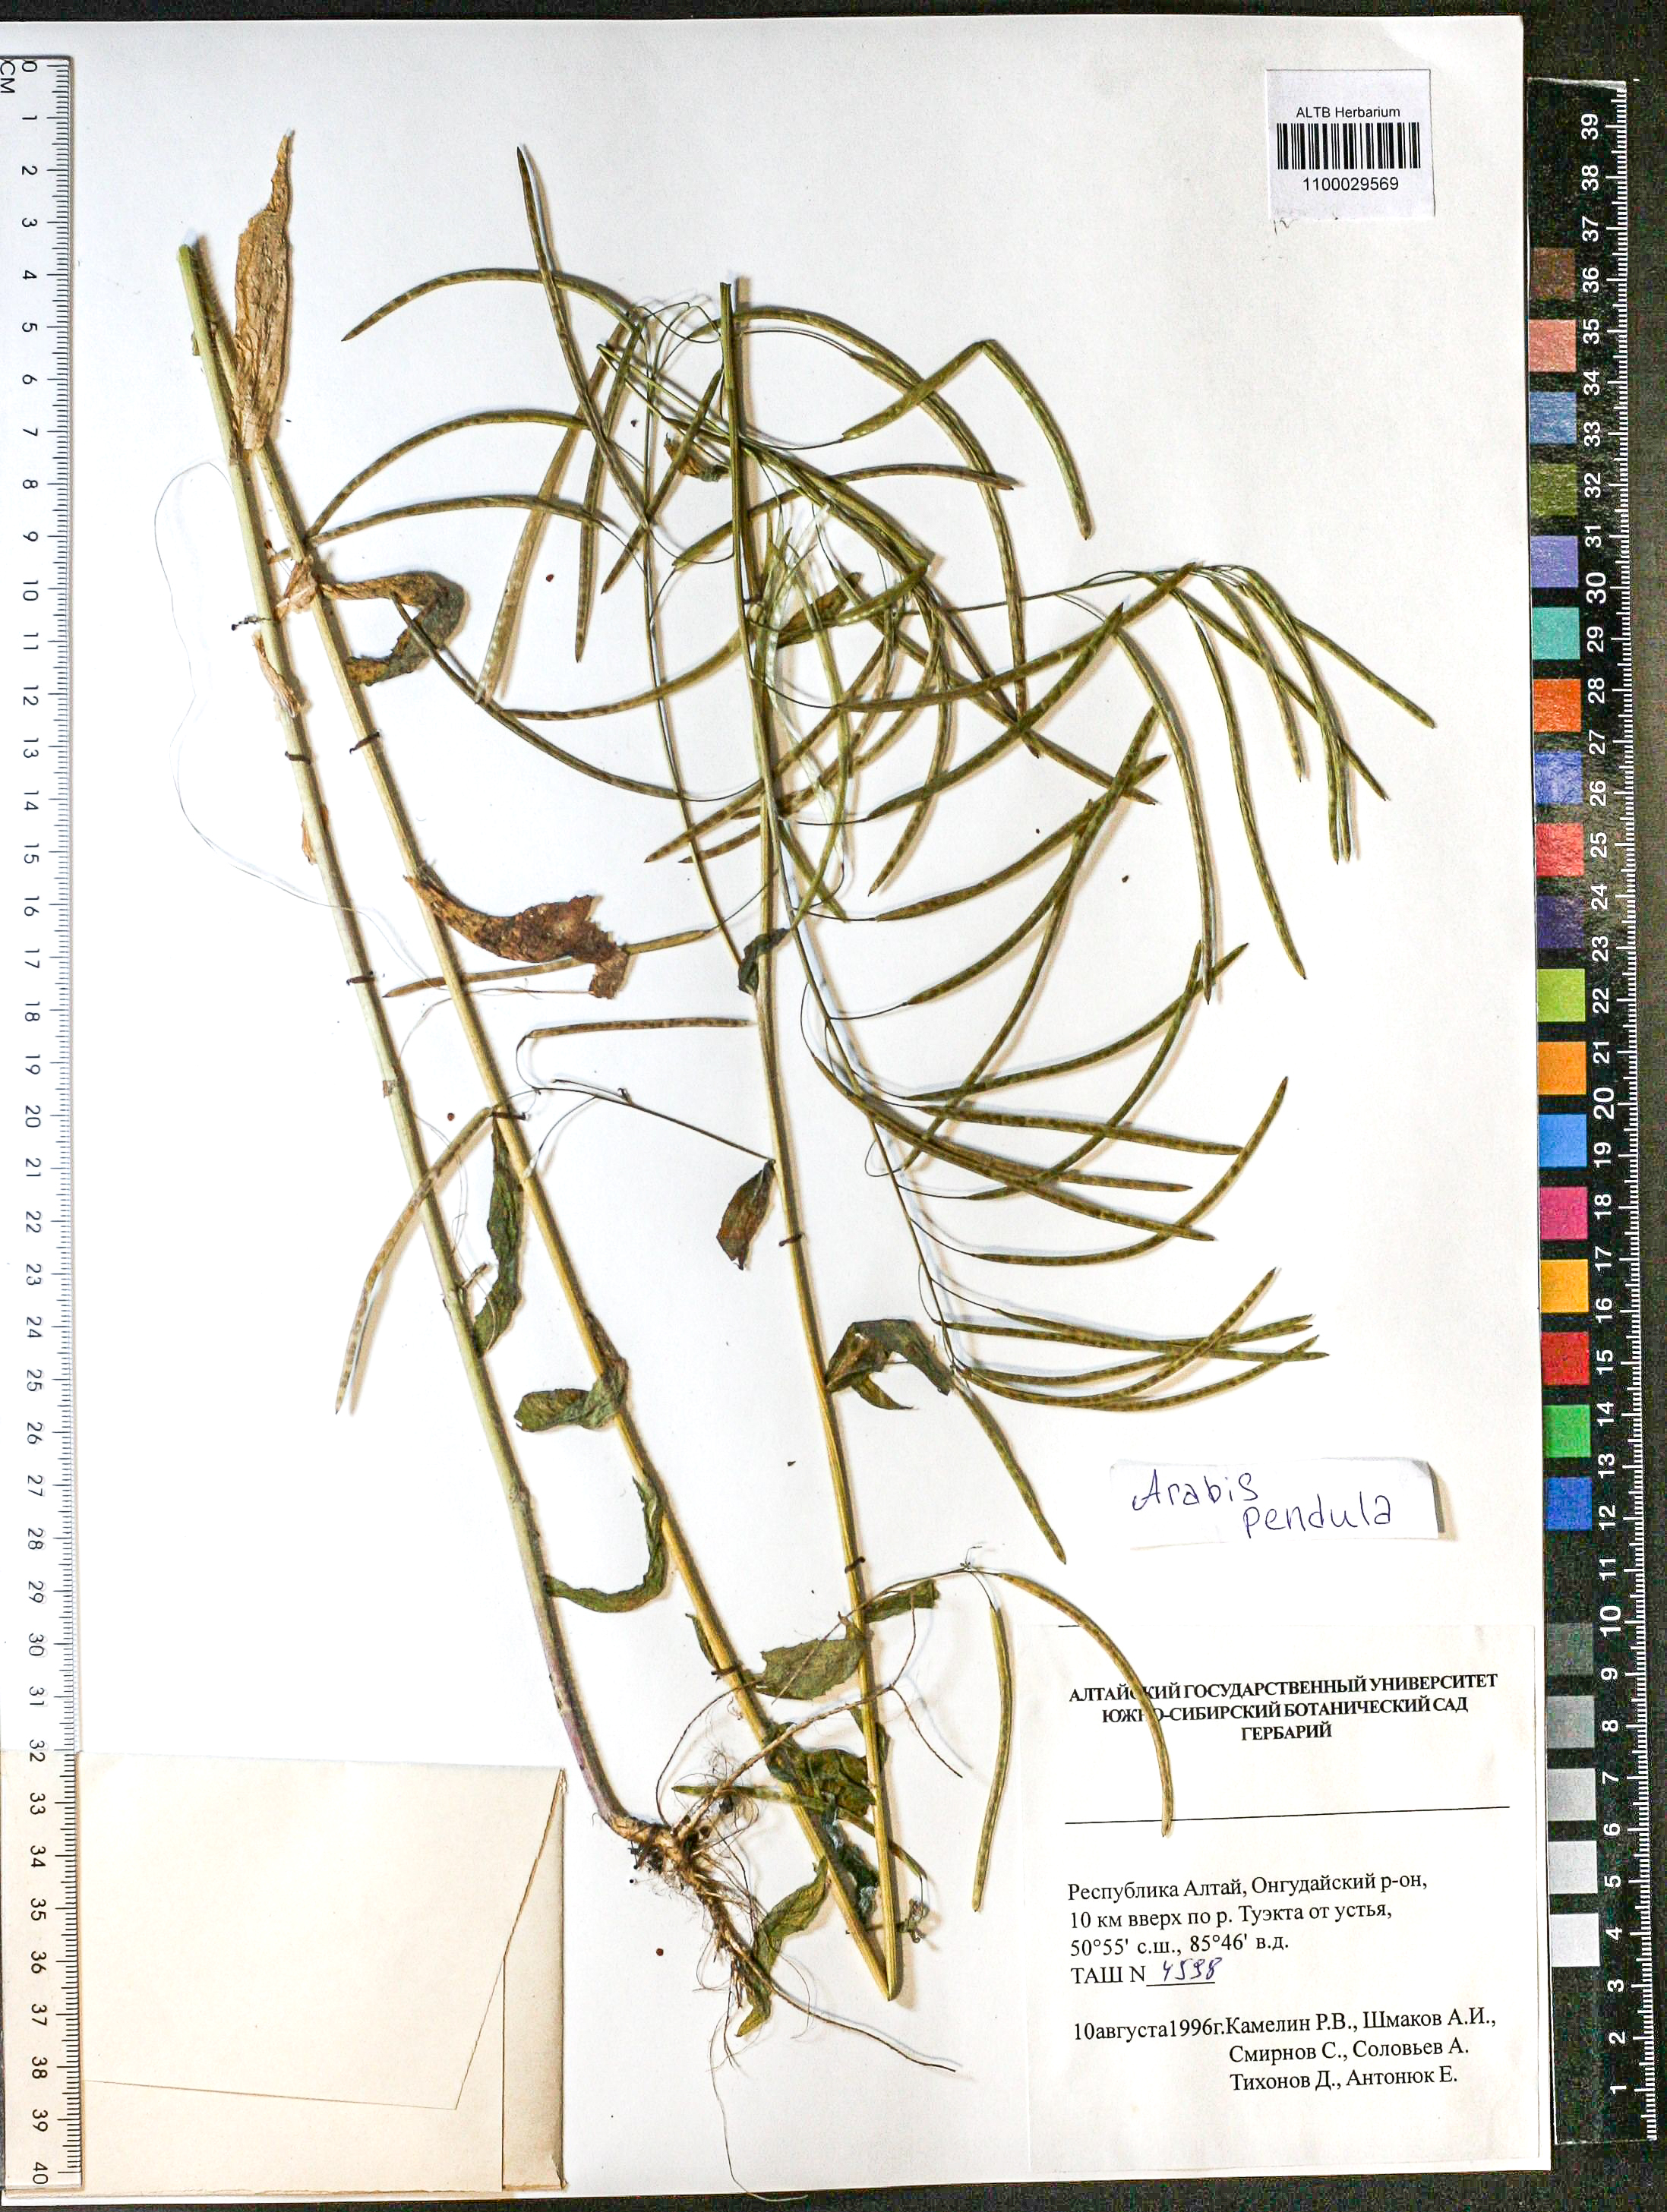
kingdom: Plantae
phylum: Tracheophyta
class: Magnoliopsida
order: Brassicales
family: Brassicaceae
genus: Catolobus
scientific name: Catolobus pendulus
